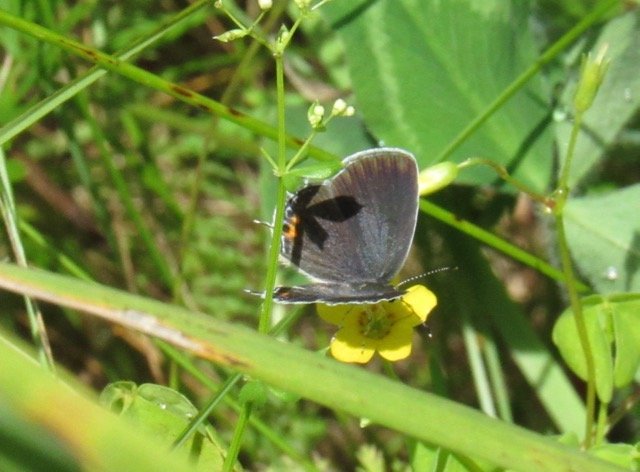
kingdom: Animalia
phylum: Arthropoda
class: Insecta
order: Lepidoptera
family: Lycaenidae
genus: Elkalyce
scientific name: Elkalyce comyntas
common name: Eastern Tailed-Blue
